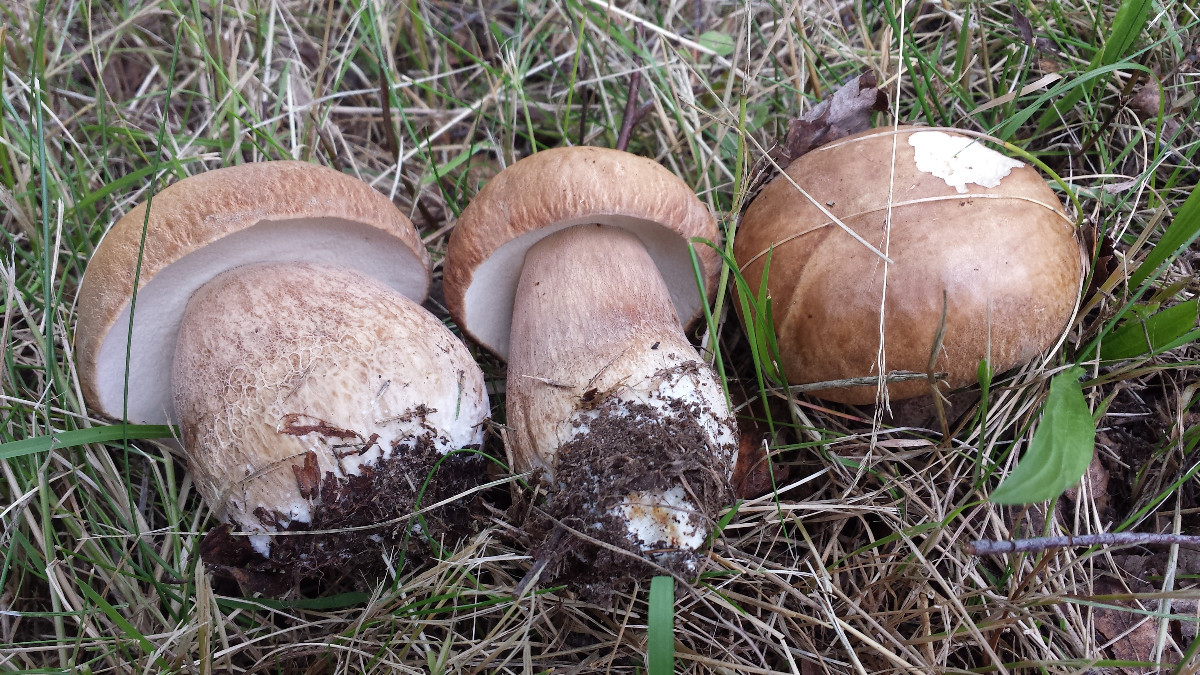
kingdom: Fungi
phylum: Basidiomycota
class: Agaricomycetes
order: Boletales
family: Boletaceae
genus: Boletus
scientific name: Boletus reticulatus
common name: sommer-rørhat
